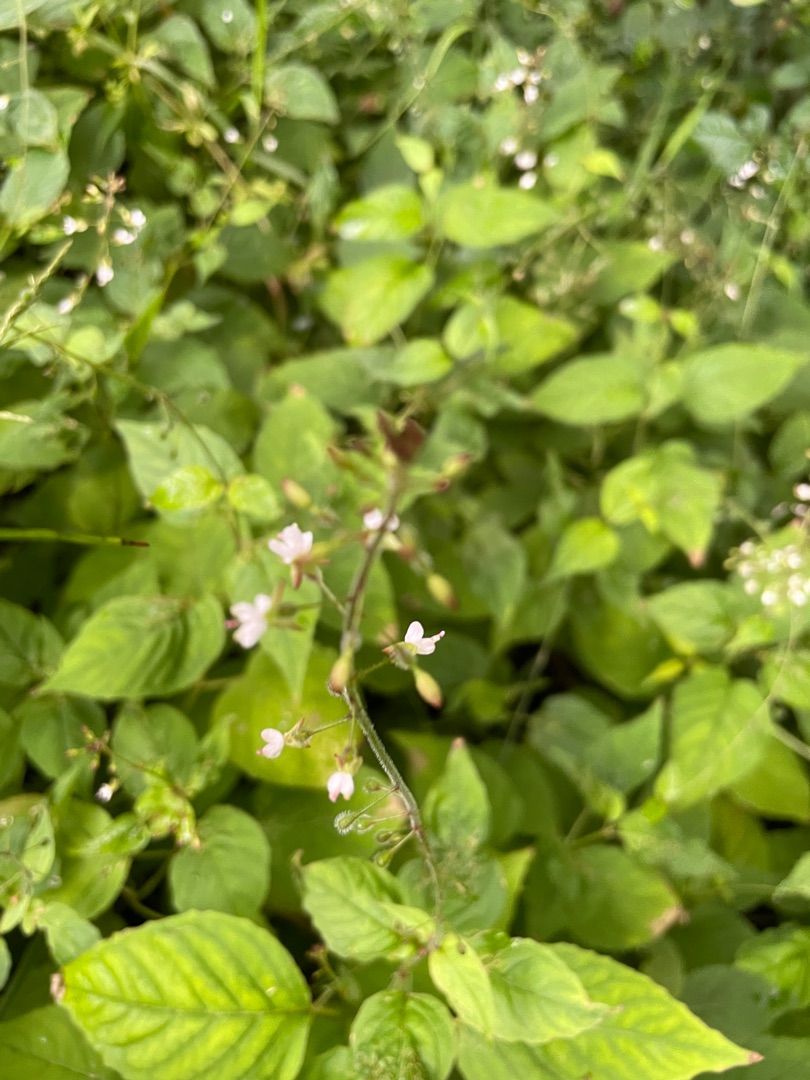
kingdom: Plantae
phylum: Tracheophyta
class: Magnoliopsida
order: Myrtales
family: Onagraceae
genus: Circaea
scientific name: Circaea lutetiana
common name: Dunet steffensurt
